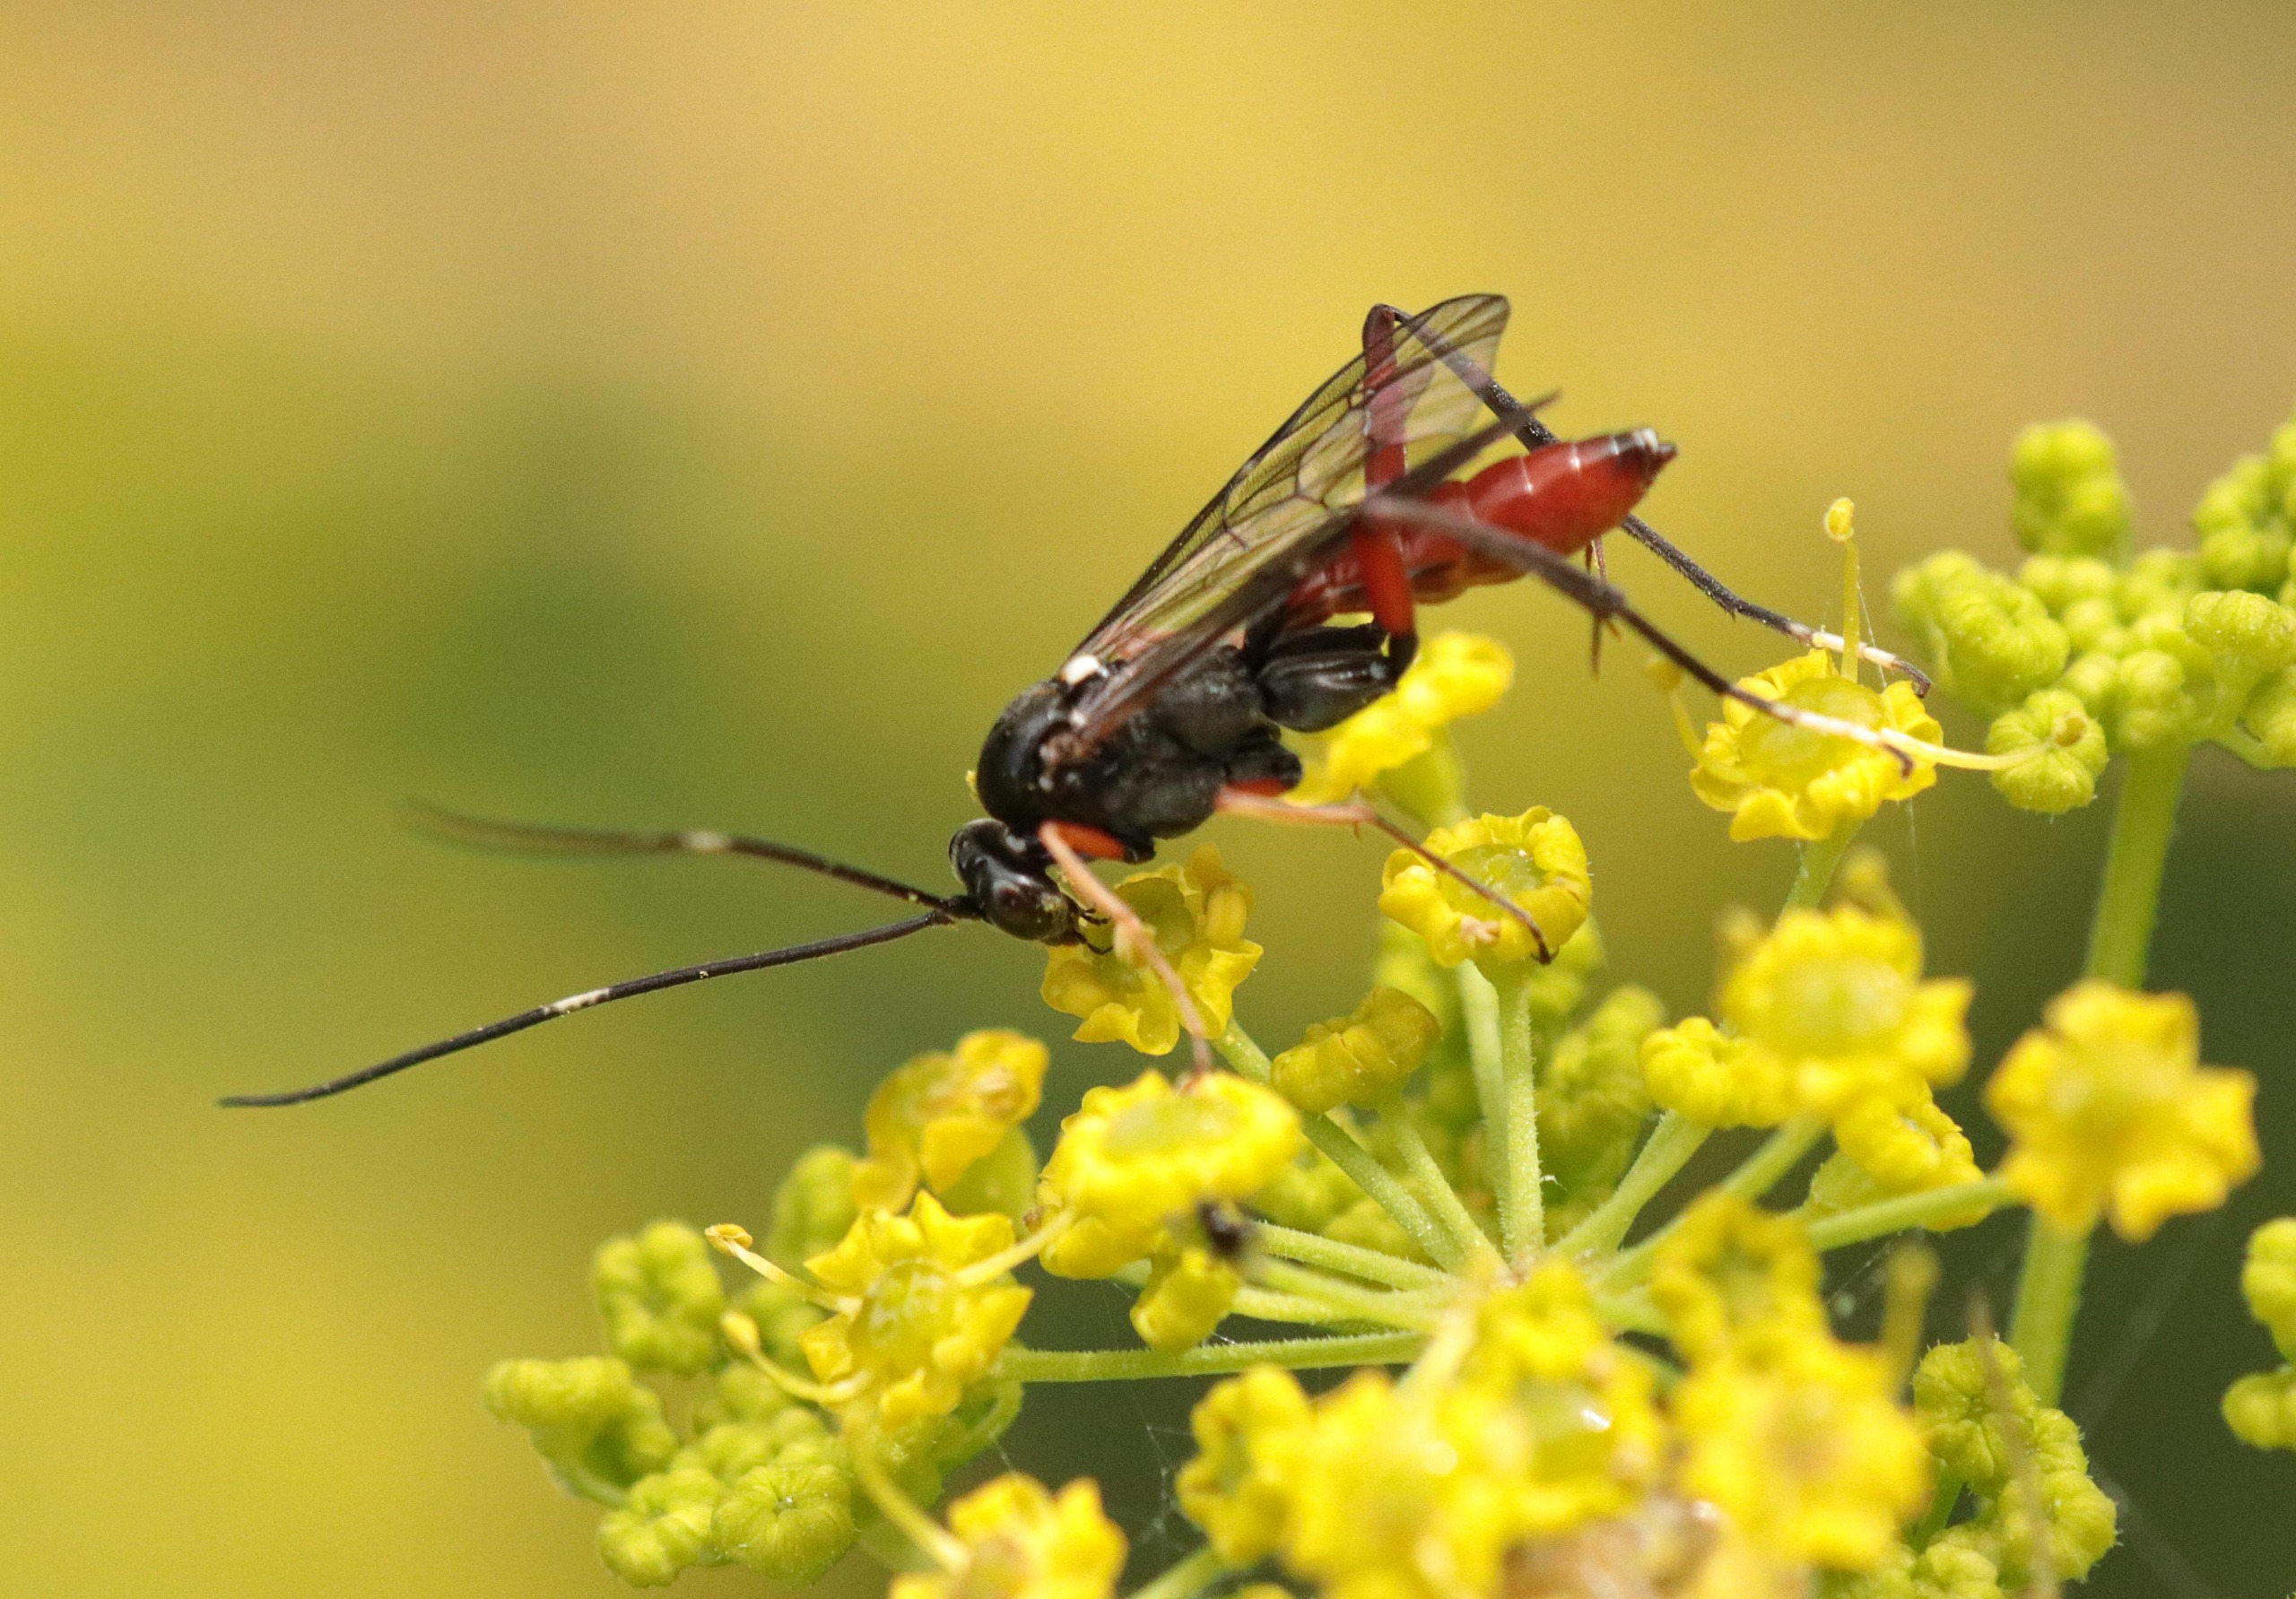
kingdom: Animalia
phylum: Arthropoda
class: Insecta
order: Hymenoptera
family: Ichneumonidae
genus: Exetastes
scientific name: Exetastes adpressorius
